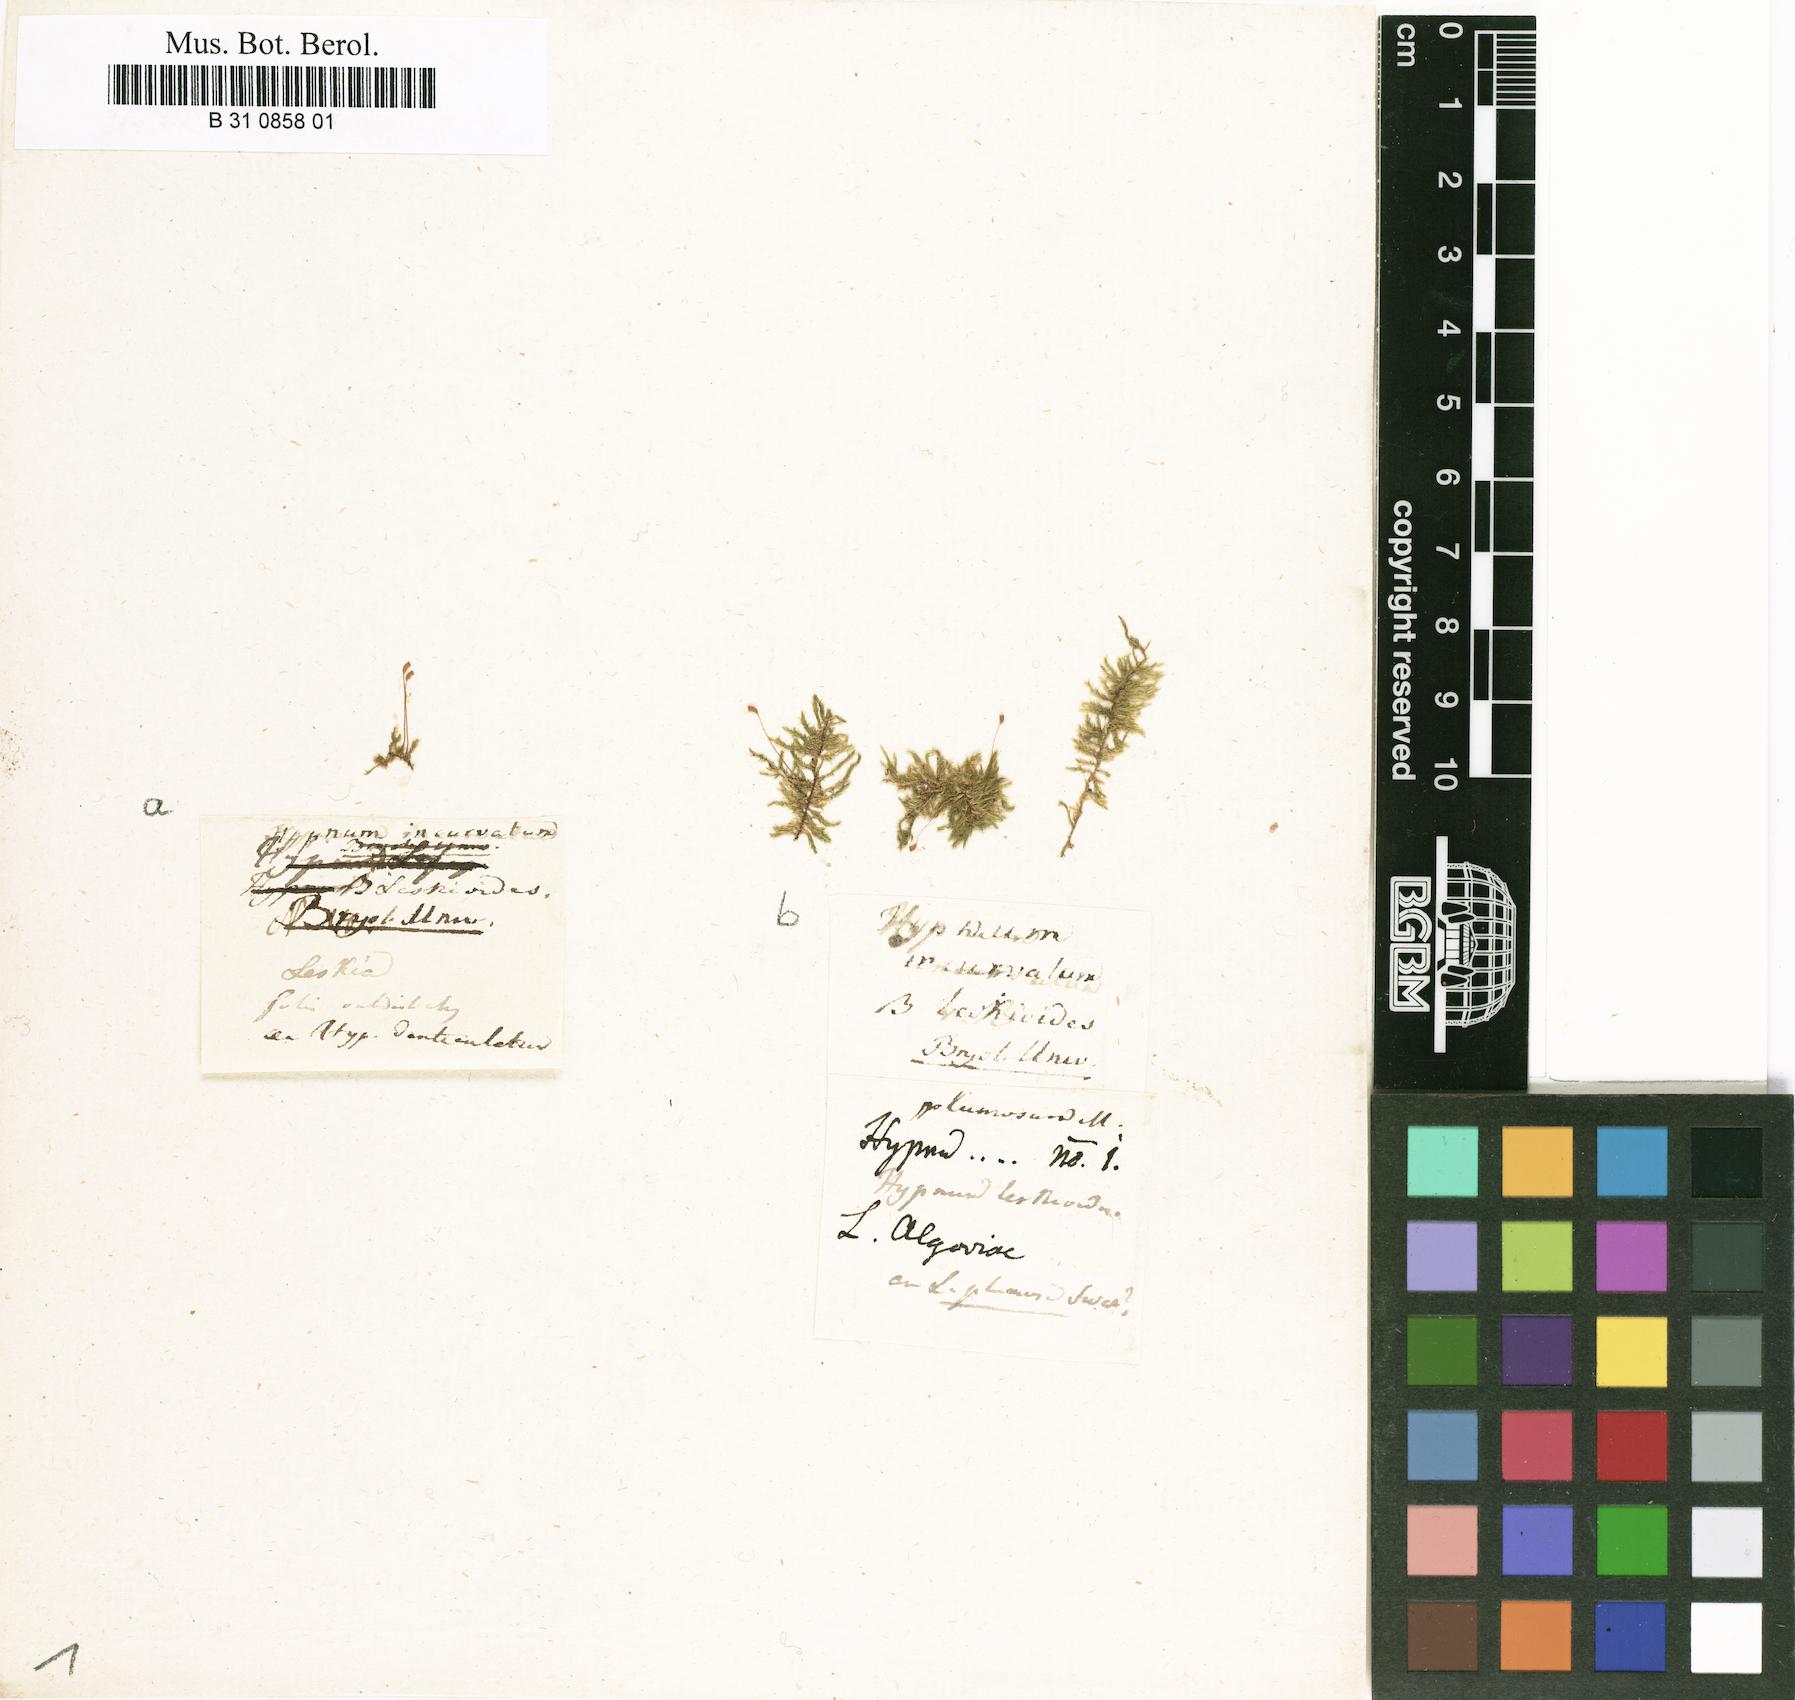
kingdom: Plantae
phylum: Bryophyta
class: Bryopsida
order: Hypnales
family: Pylaisiaceae
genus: Homomallium
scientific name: Homomallium incurvatum
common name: Incurved feather-moss
